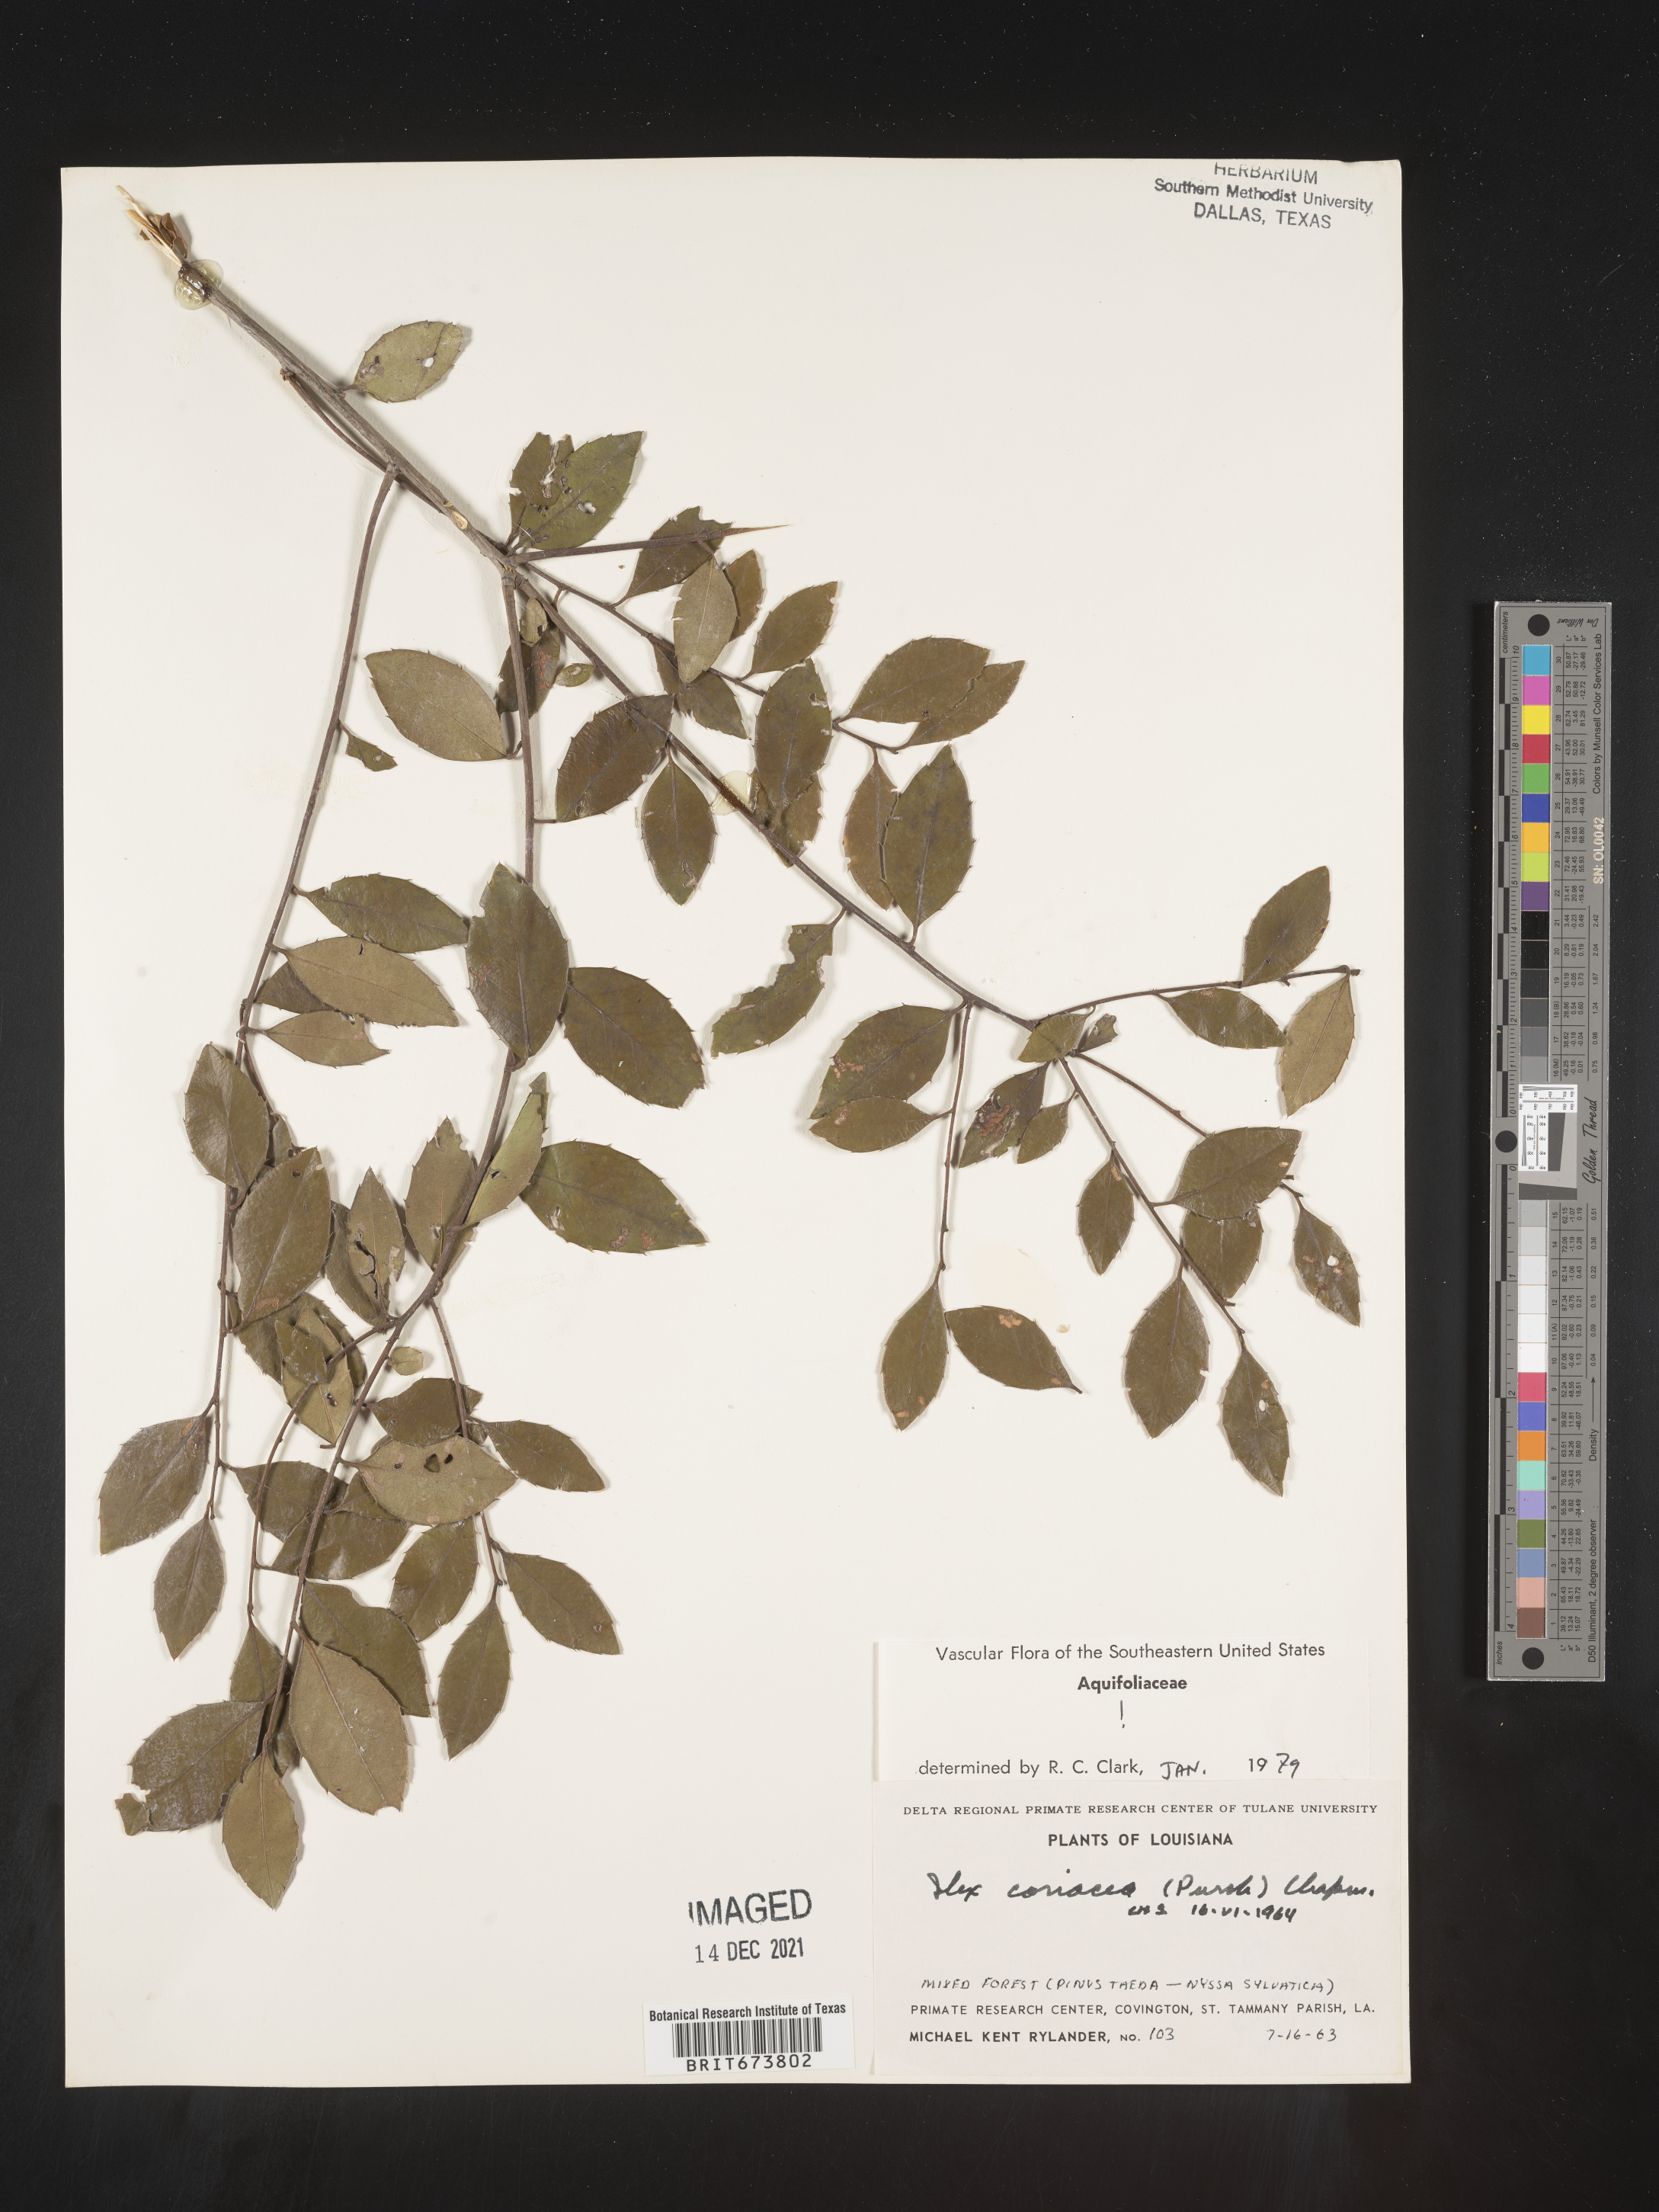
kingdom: Plantae
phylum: Tracheophyta
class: Magnoliopsida
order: Aquifoliales
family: Aquifoliaceae
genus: Ilex
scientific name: Ilex coriacea
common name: Sweet gallberry
